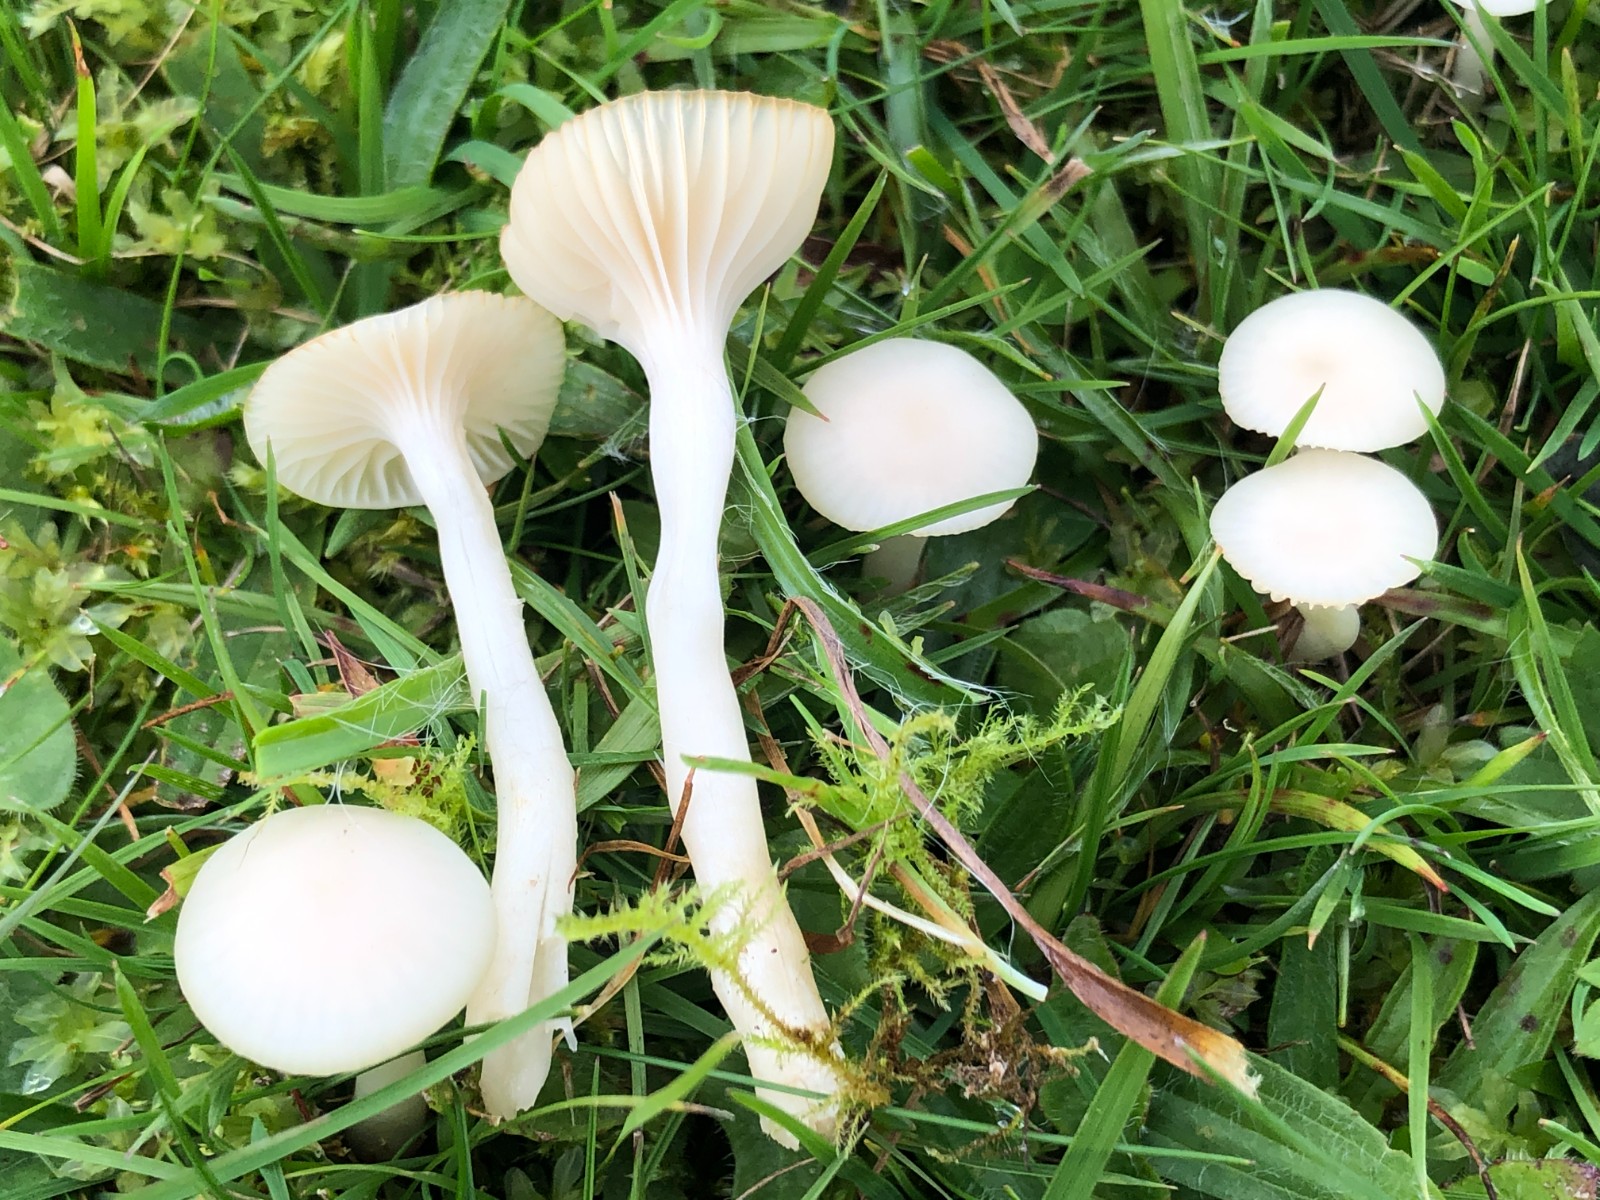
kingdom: Fungi
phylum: Basidiomycota
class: Agaricomycetes
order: Agaricales
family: Hygrophoraceae
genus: Cuphophyllus
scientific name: Cuphophyllus virgineus
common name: snehvid vokshat
